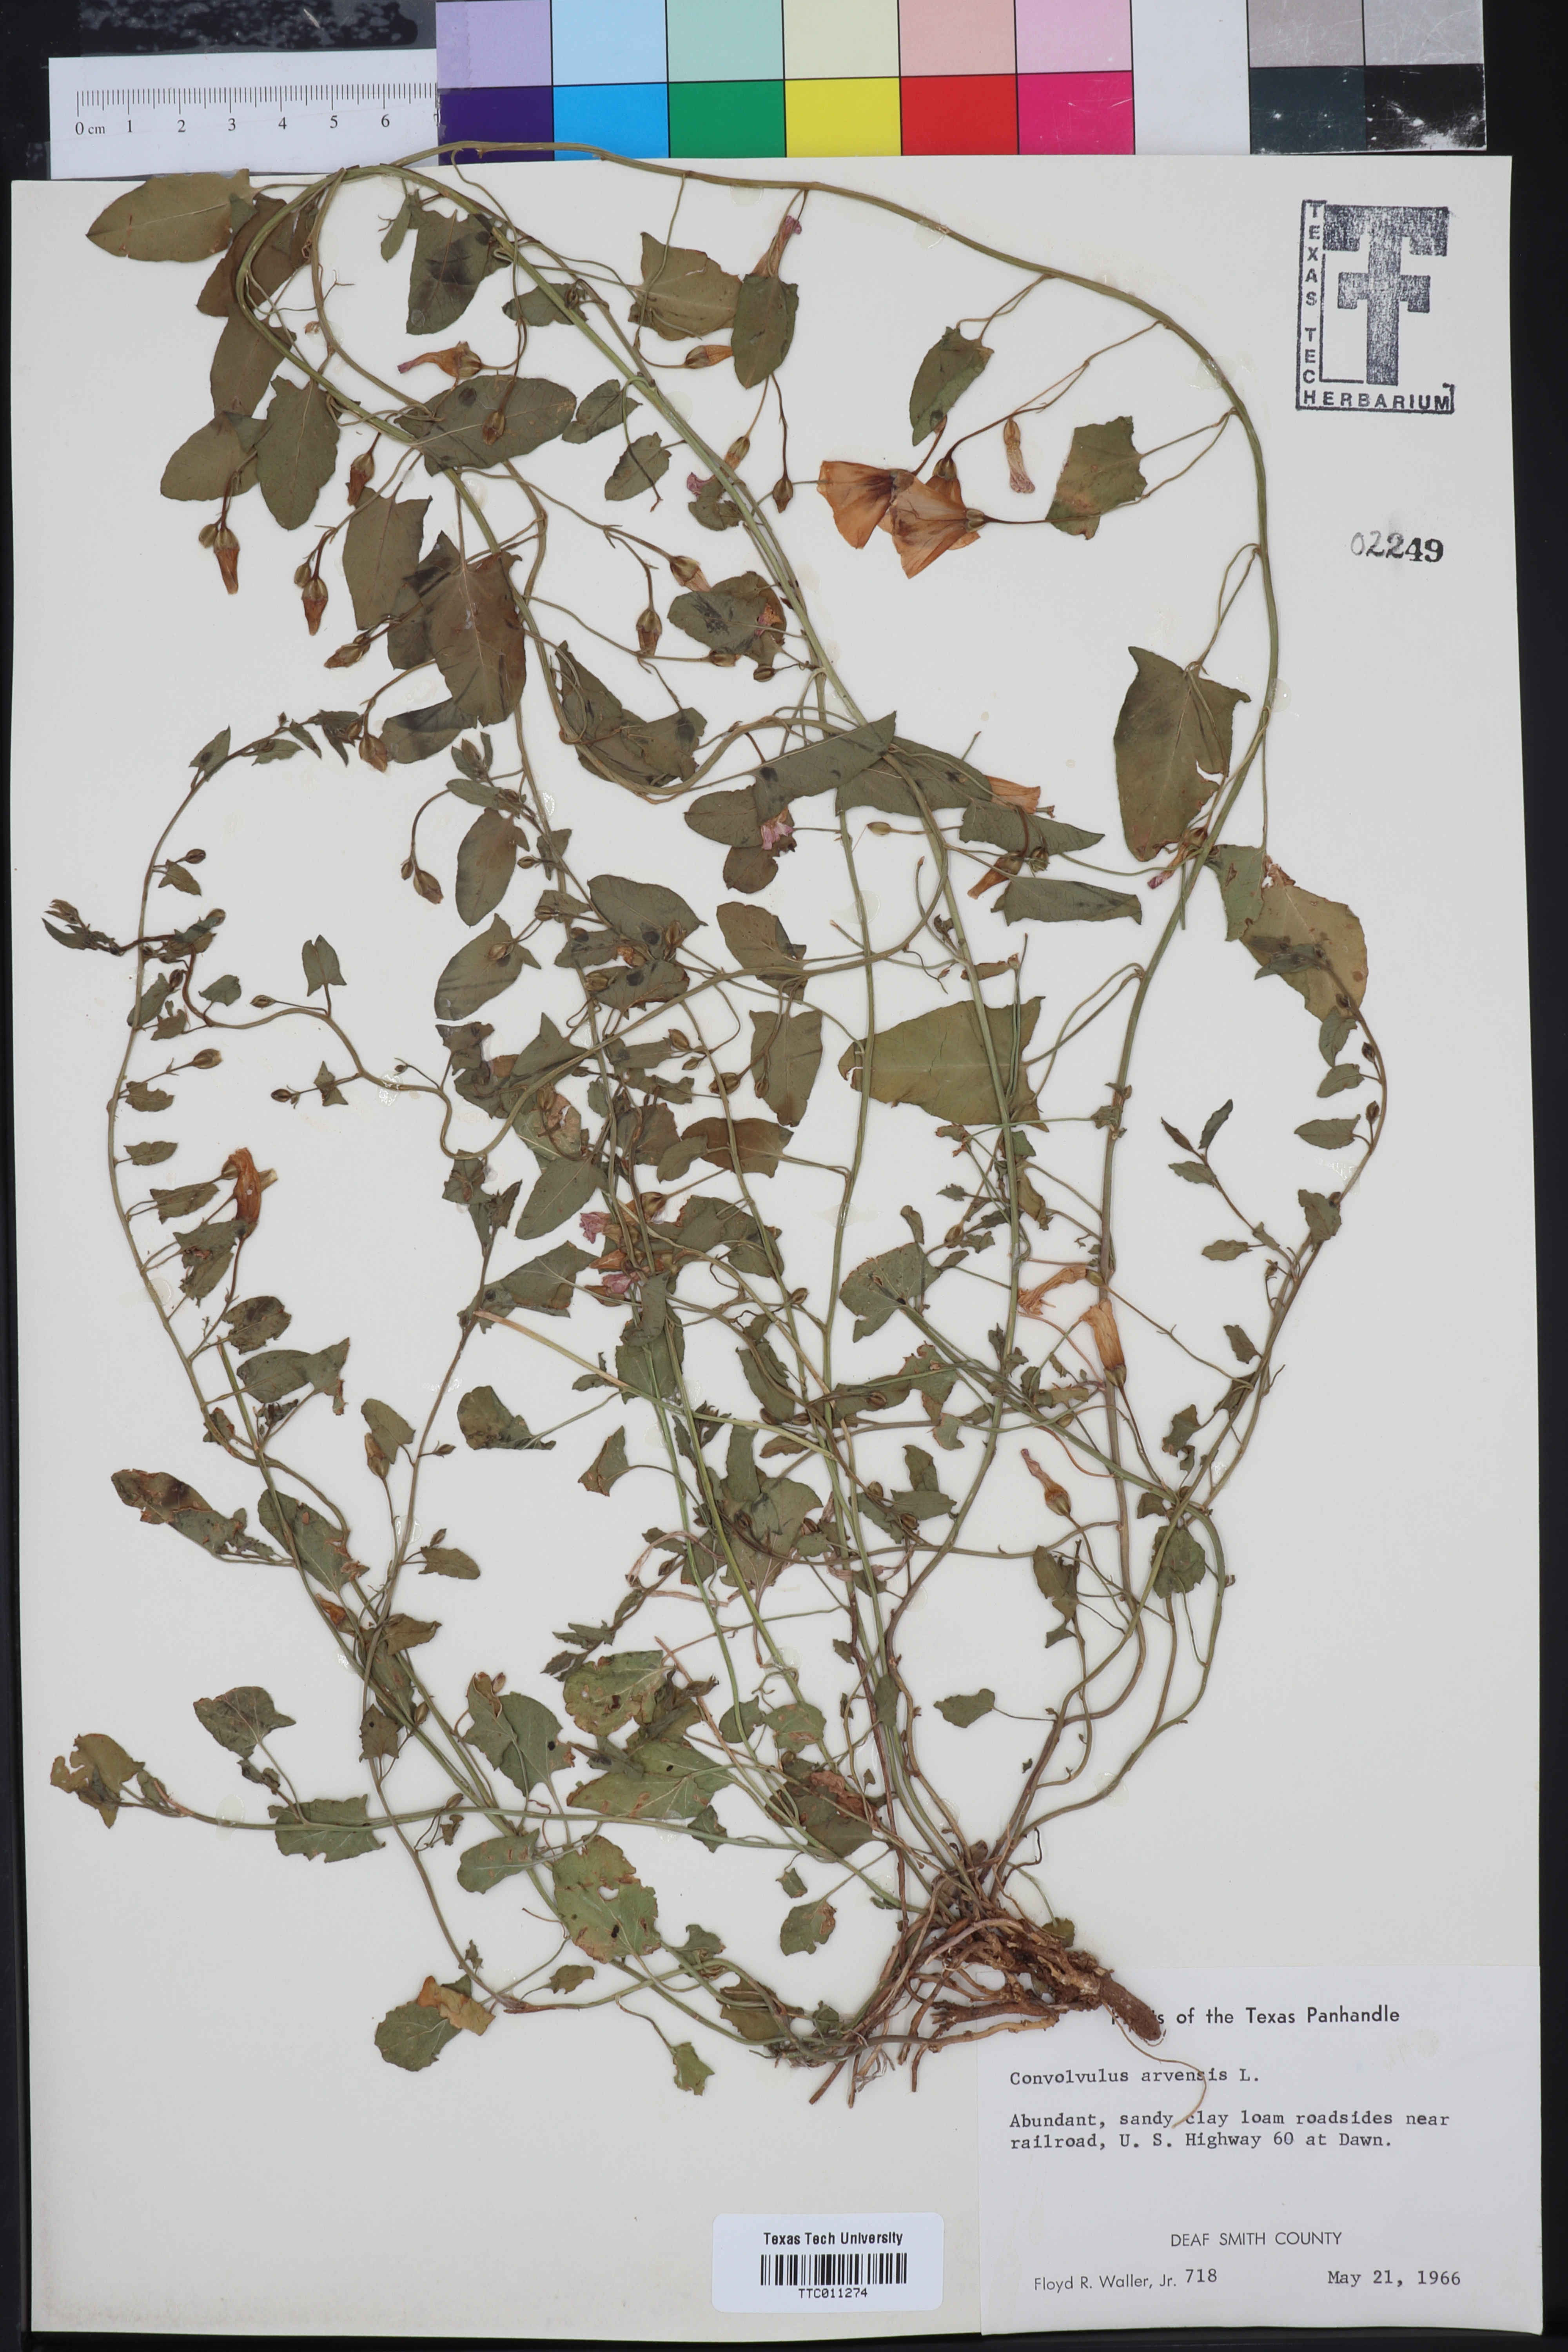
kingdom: Plantae
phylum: Tracheophyta
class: Magnoliopsida
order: Solanales
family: Convolvulaceae
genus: Convolvulus
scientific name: Convolvulus arvensis
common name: Field bindweed
